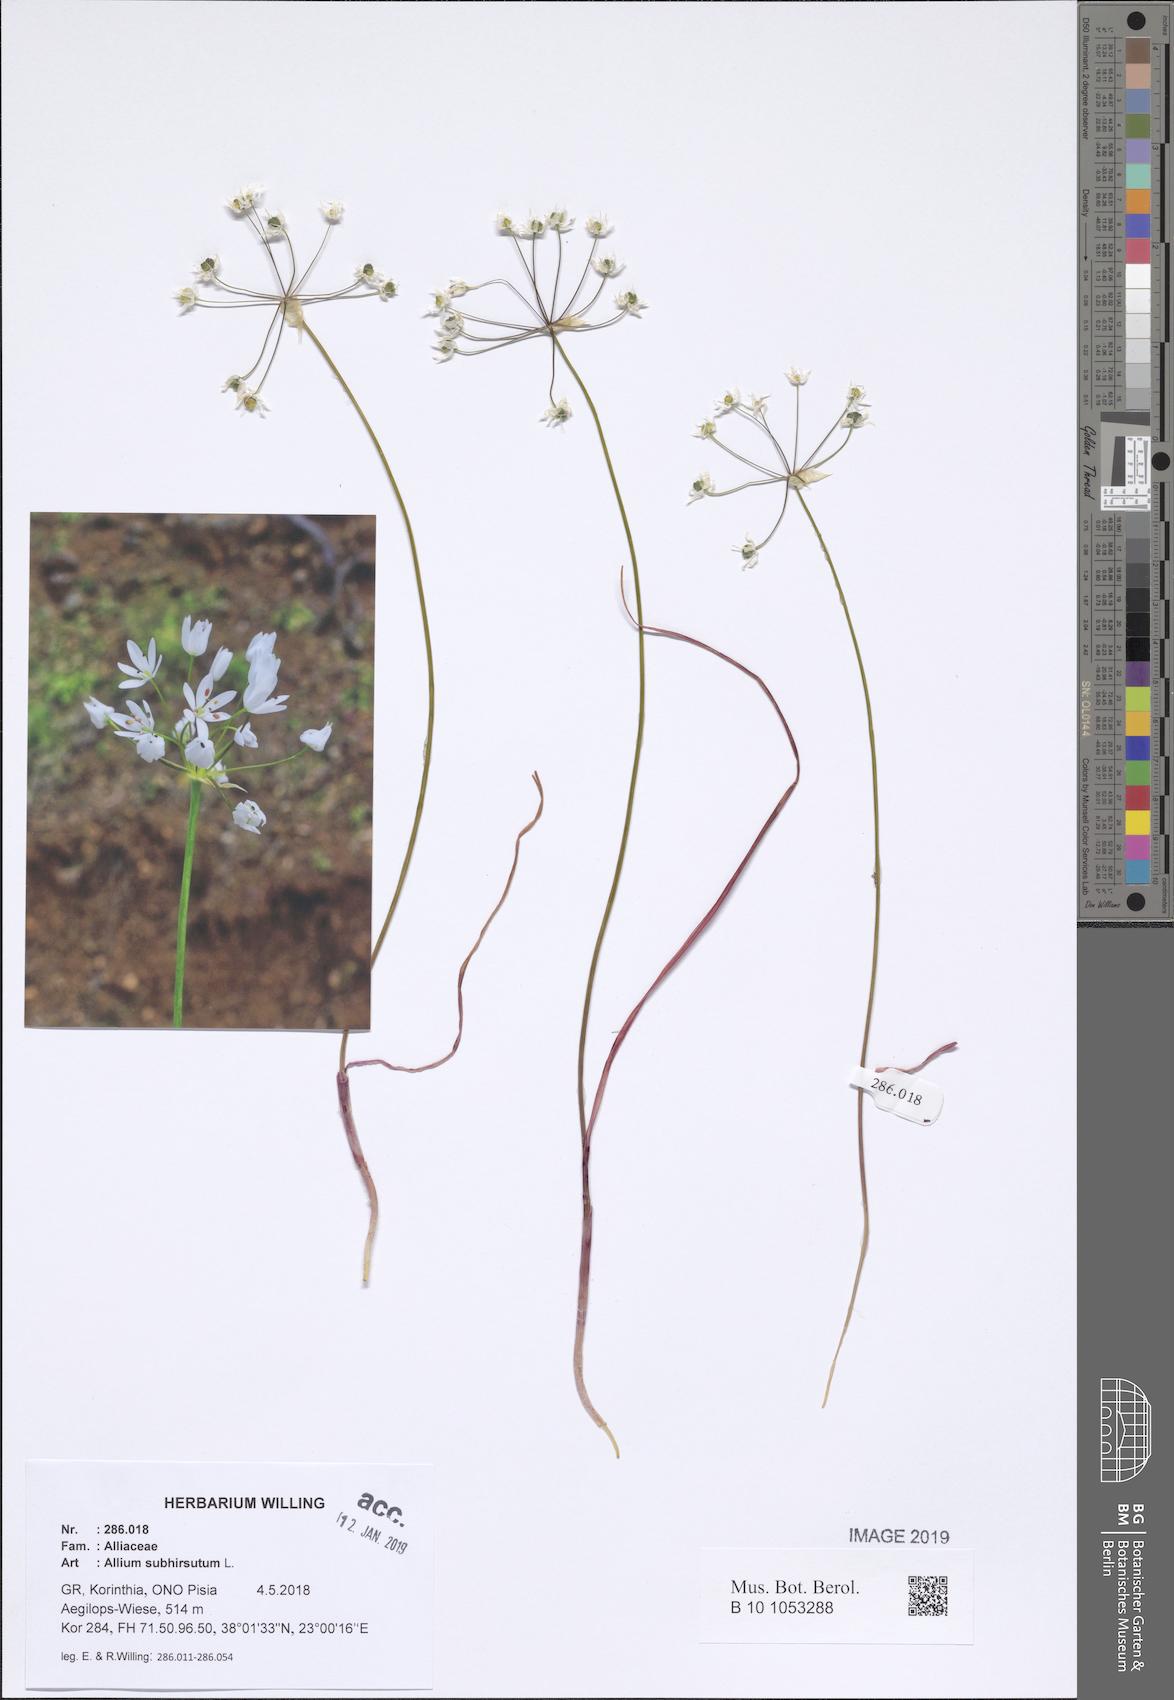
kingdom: Plantae
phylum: Tracheophyta
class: Liliopsida
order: Asparagales
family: Amaryllidaceae
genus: Allium
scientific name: Allium subhirsutum
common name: Hairy garlic
